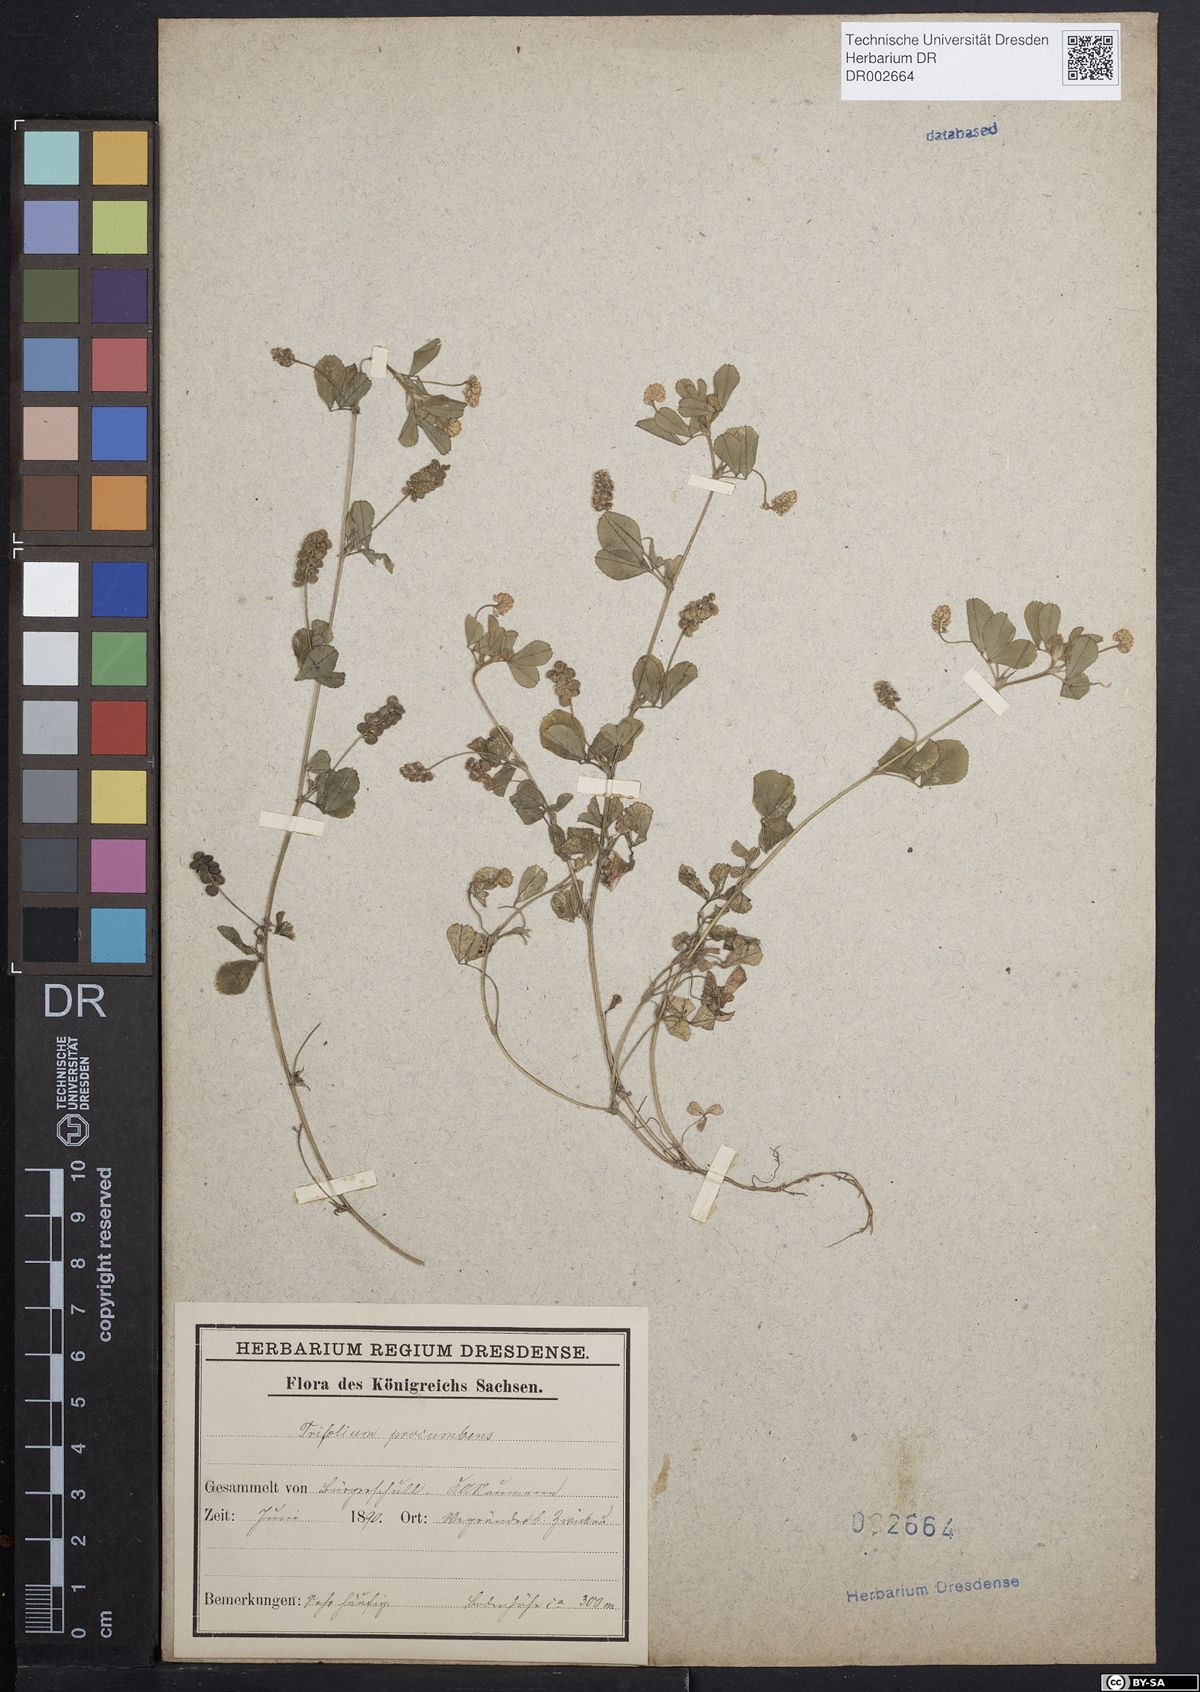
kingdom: Plantae
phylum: Tracheophyta
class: Magnoliopsida
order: Fabales
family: Fabaceae
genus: Trifolium
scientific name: Trifolium campestre
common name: Field clover
